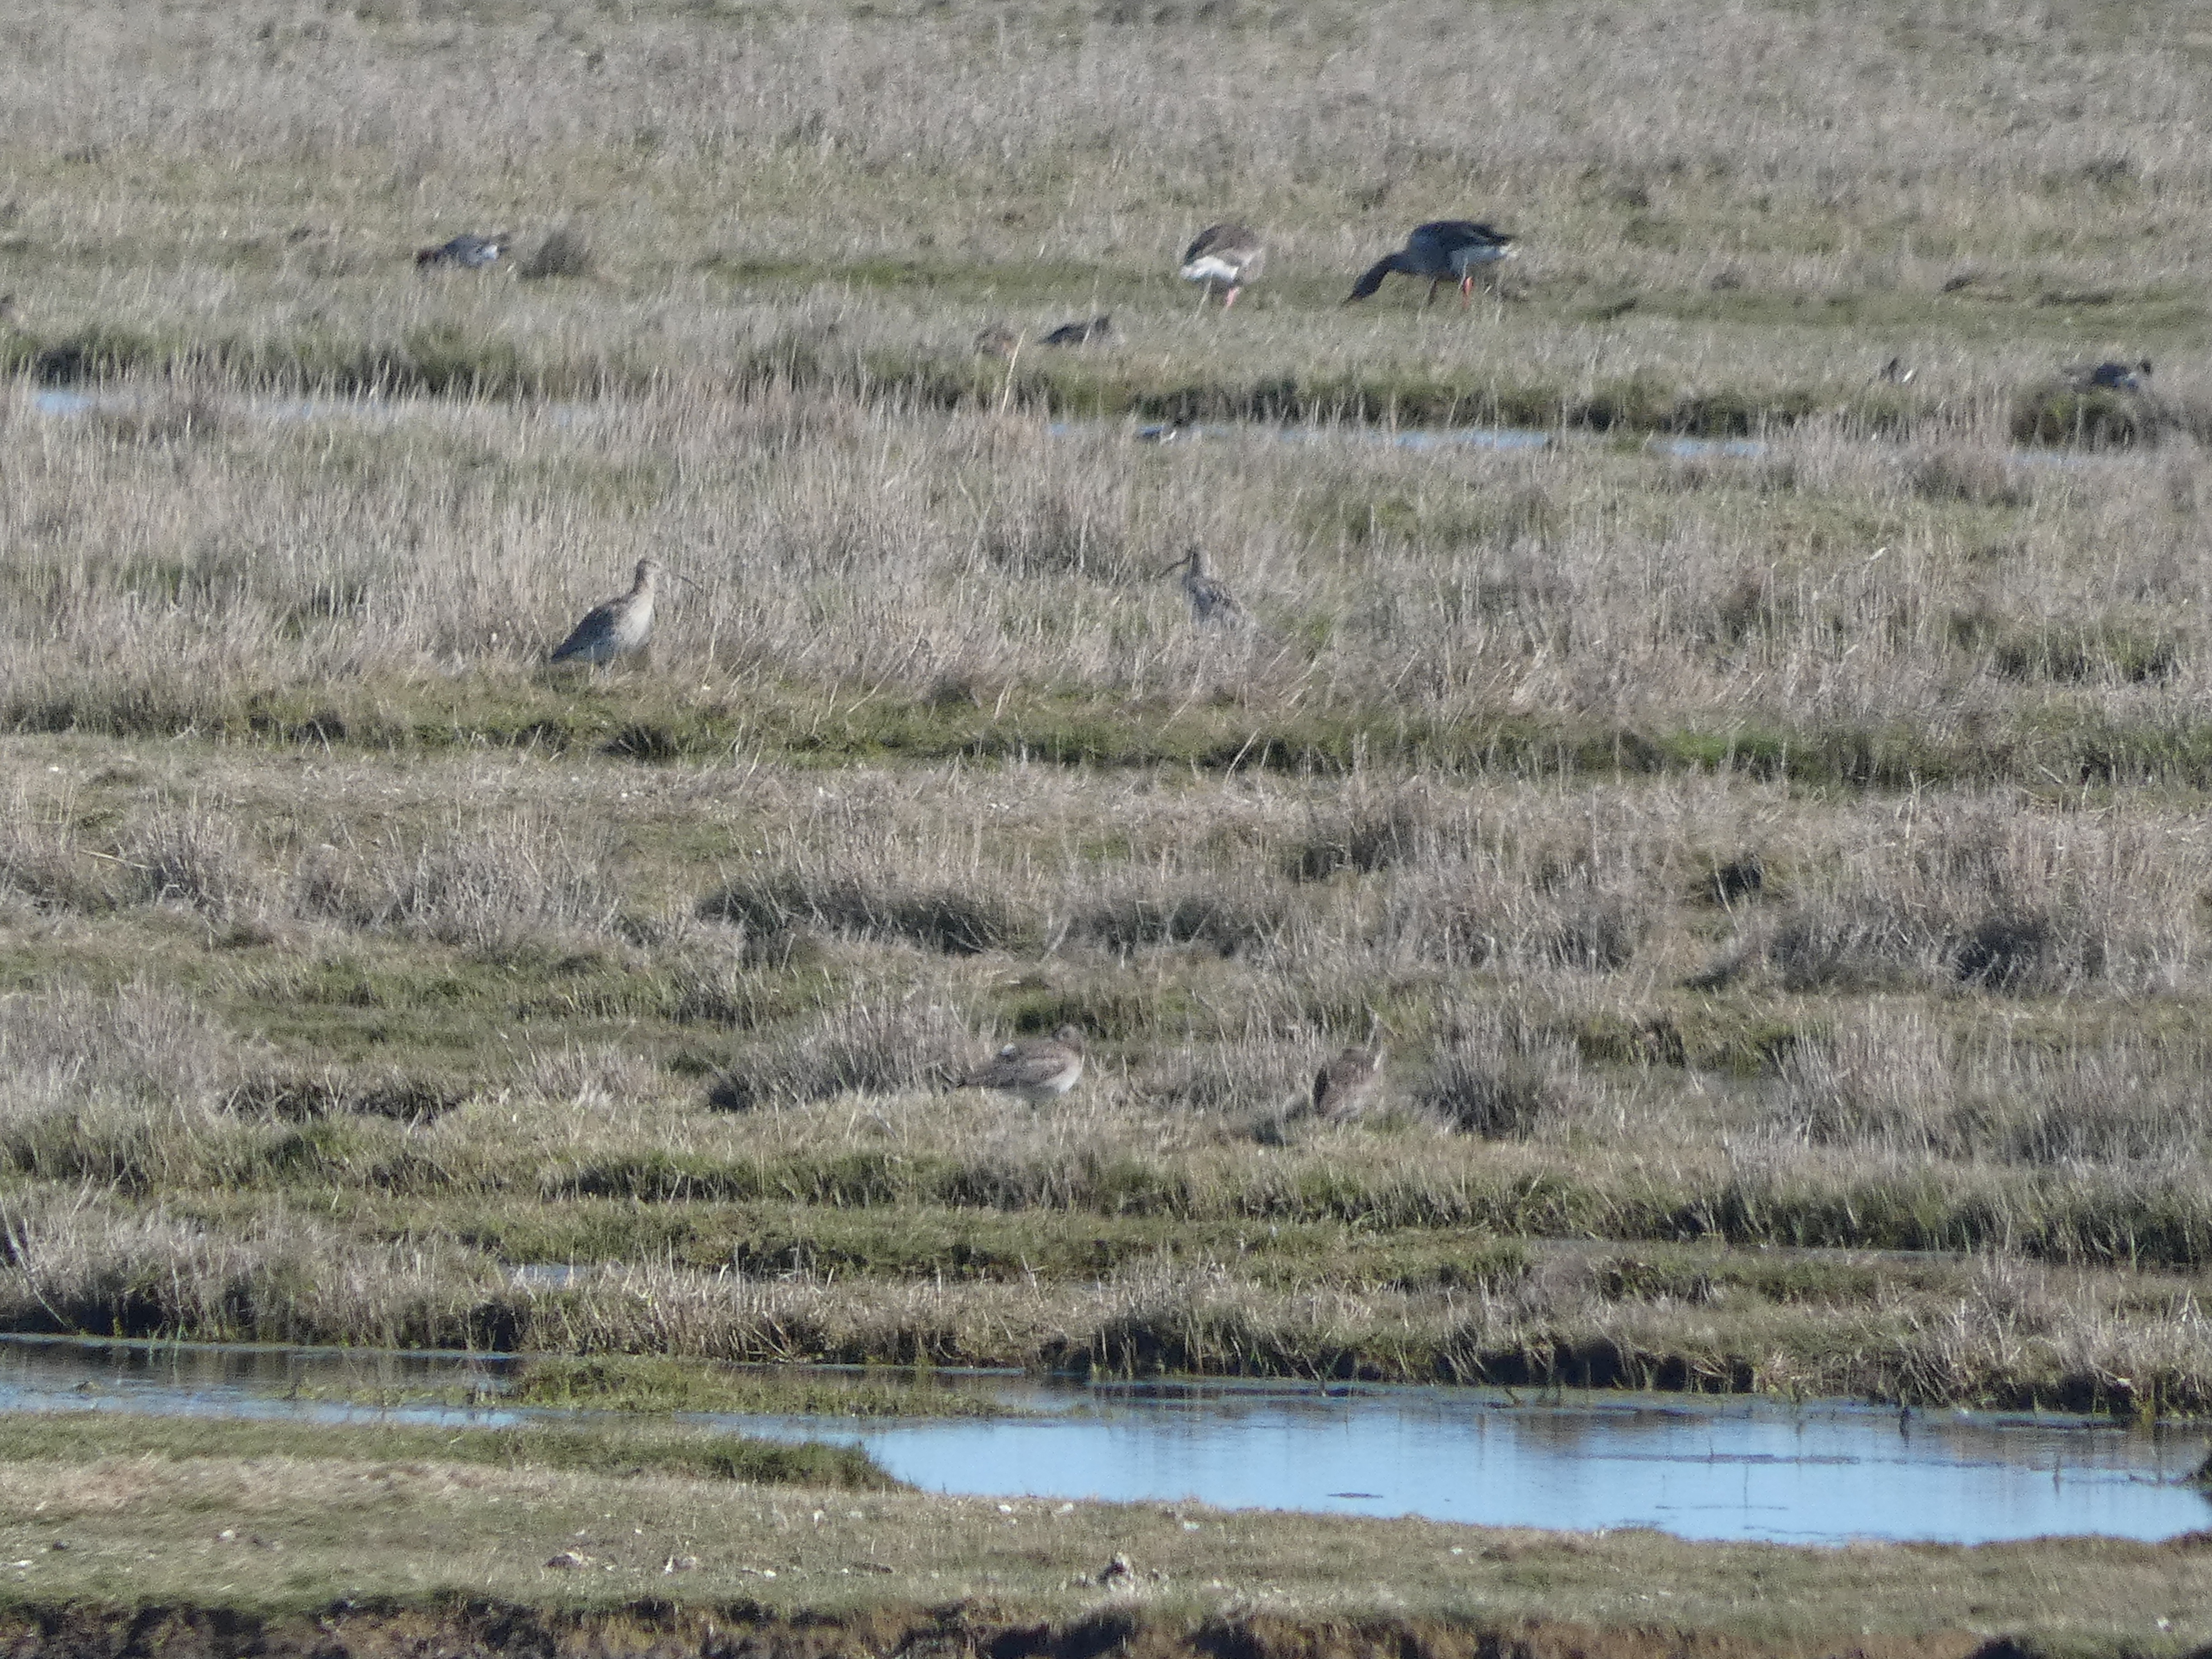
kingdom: Animalia
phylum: Chordata
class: Aves
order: Charadriiformes
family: Scolopacidae
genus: Numenius
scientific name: Numenius arquata
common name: Storspove
